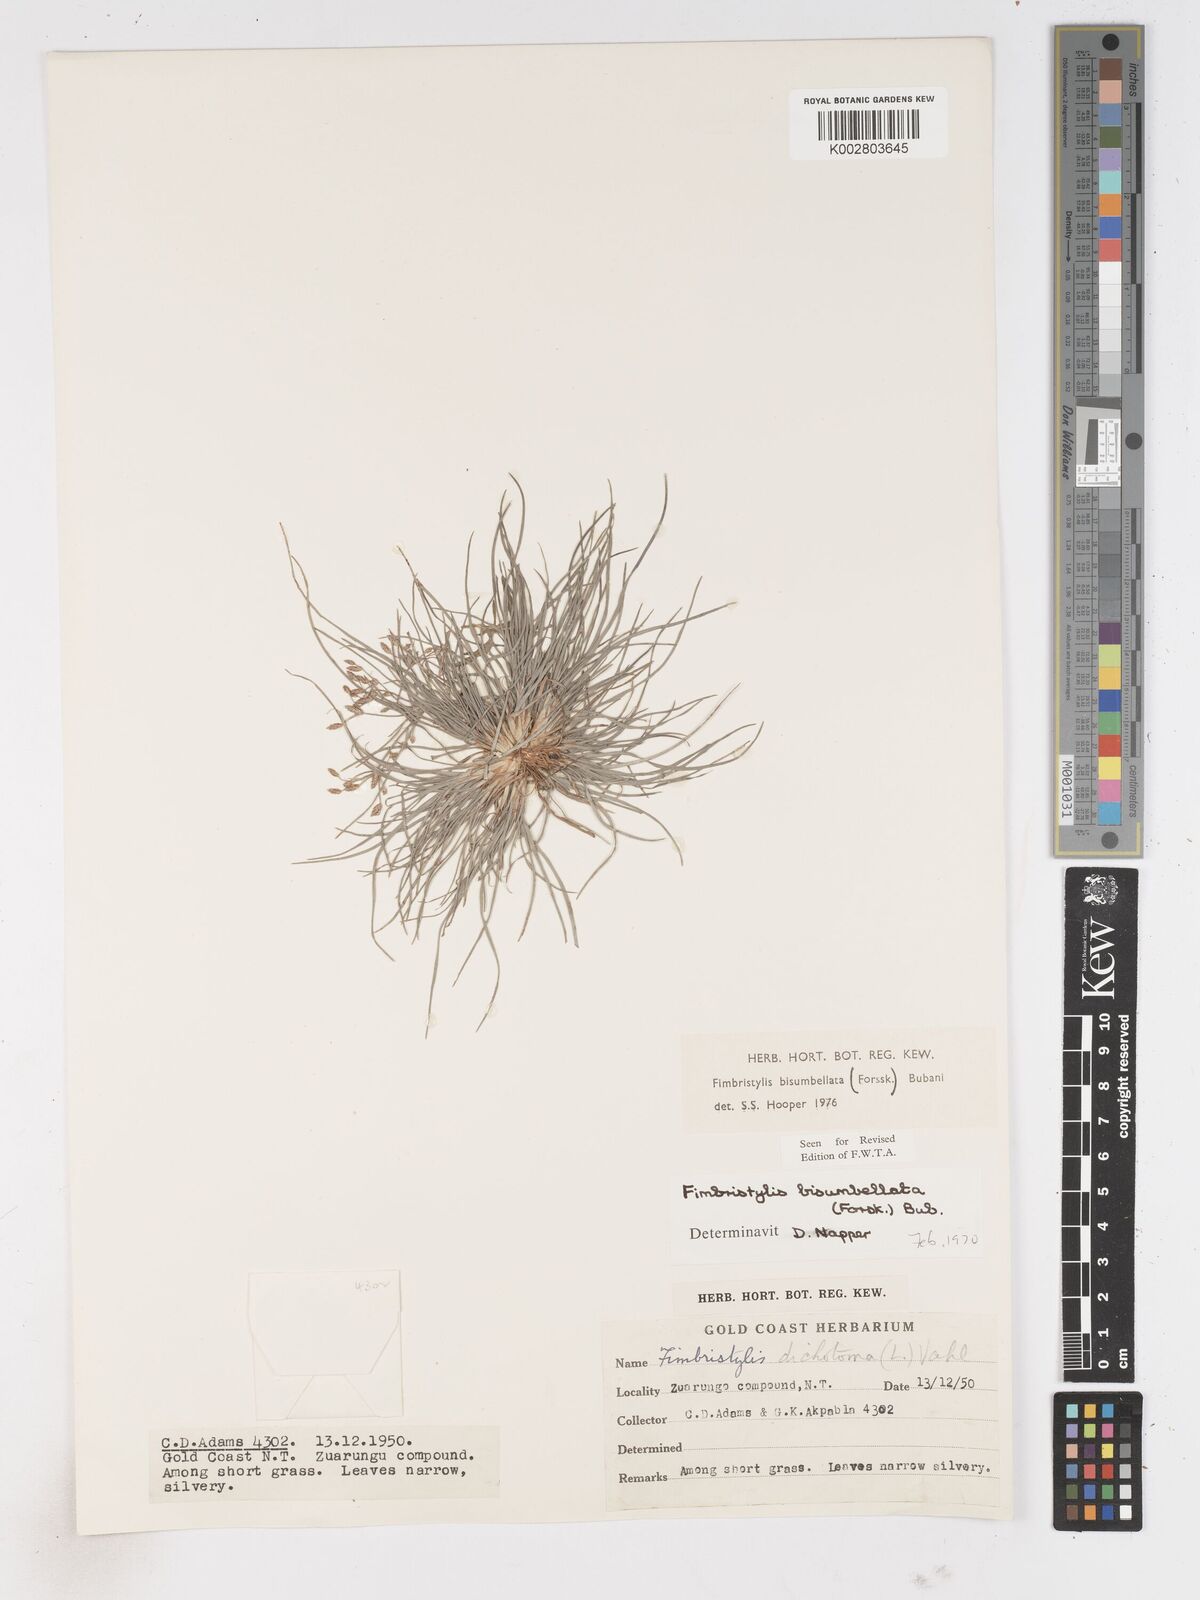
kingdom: Plantae
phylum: Tracheophyta
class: Liliopsida
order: Poales
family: Cyperaceae
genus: Fimbristylis
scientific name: Fimbristylis bisumbellata
